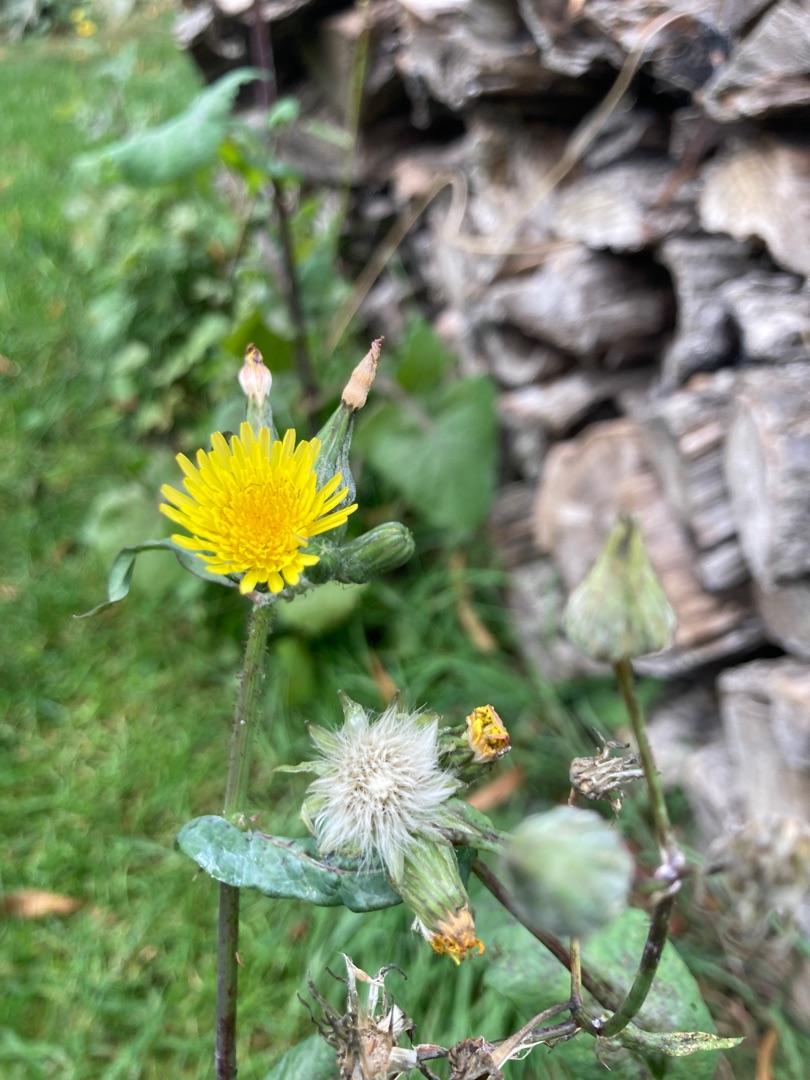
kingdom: Plantae
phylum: Tracheophyta
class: Magnoliopsida
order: Asterales
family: Asteraceae
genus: Sonchus
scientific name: Sonchus oleraceus
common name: Almindelig svinemælk
